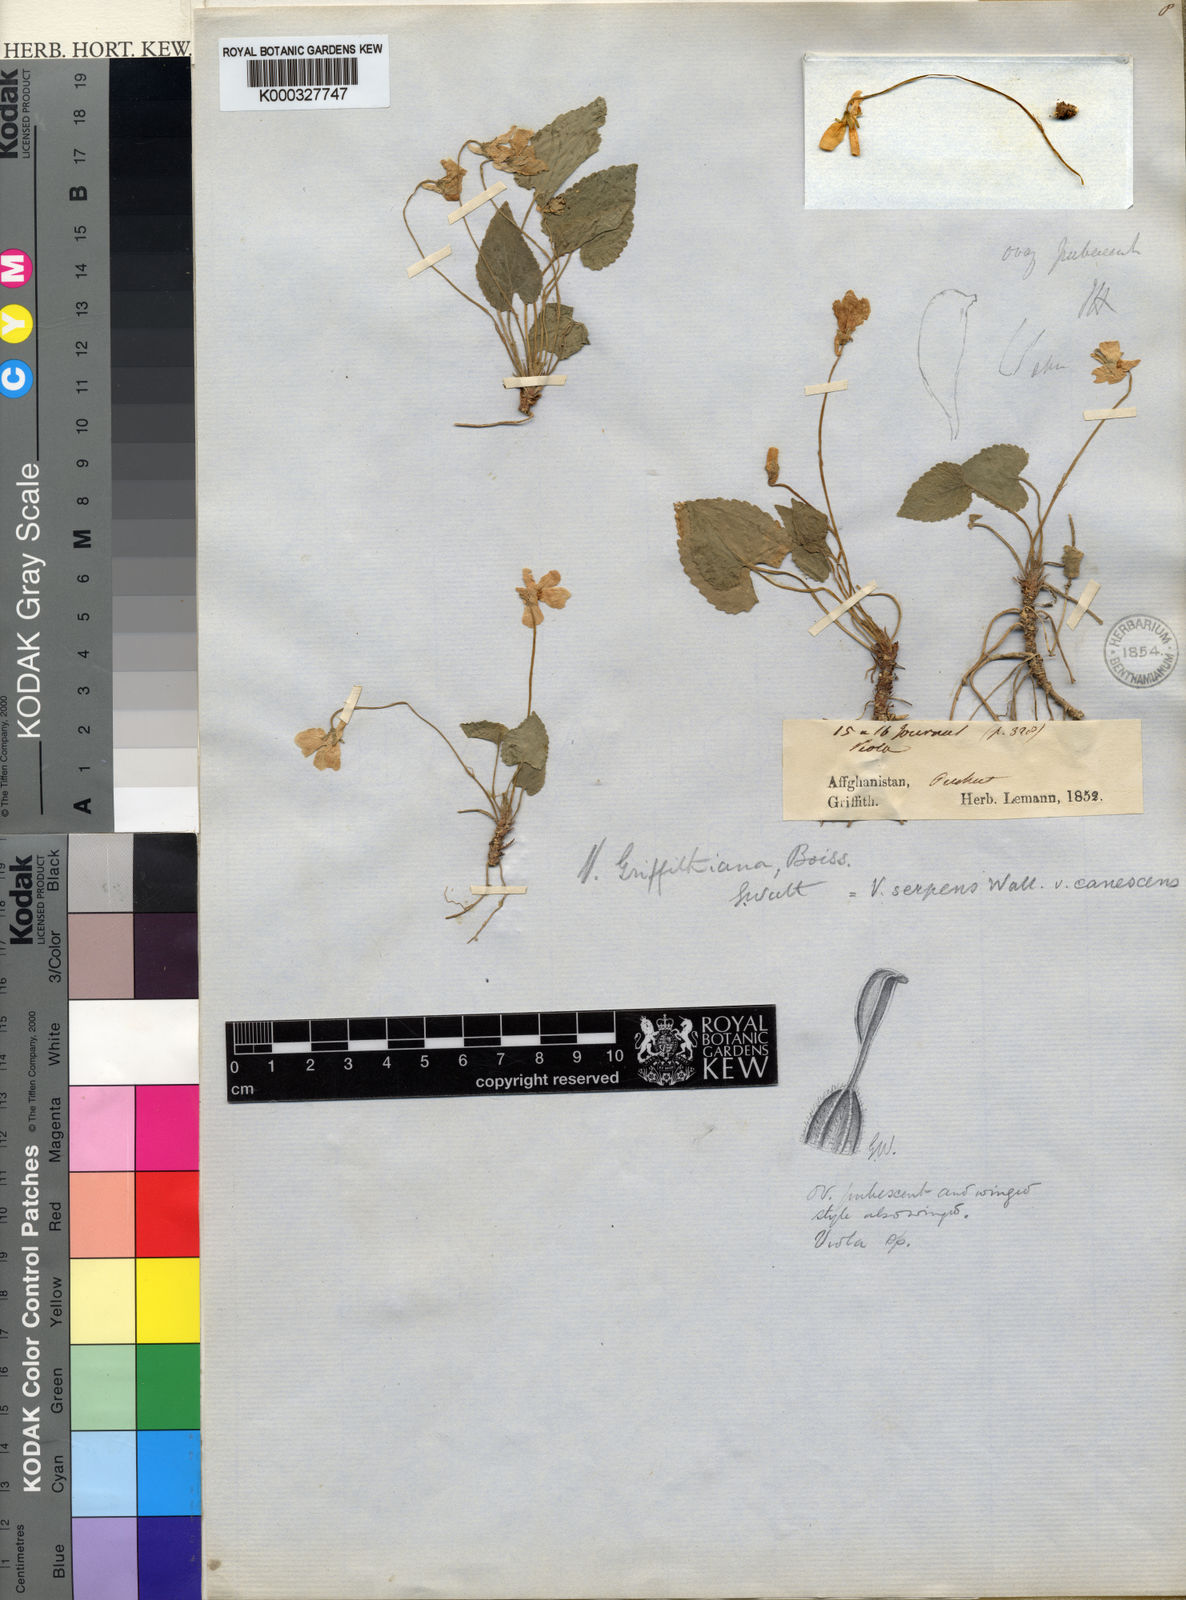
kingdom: Plantae
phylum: Tracheophyta
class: Magnoliopsida
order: Malpighiales
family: Violaceae
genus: Viola
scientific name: Viola pilosa
